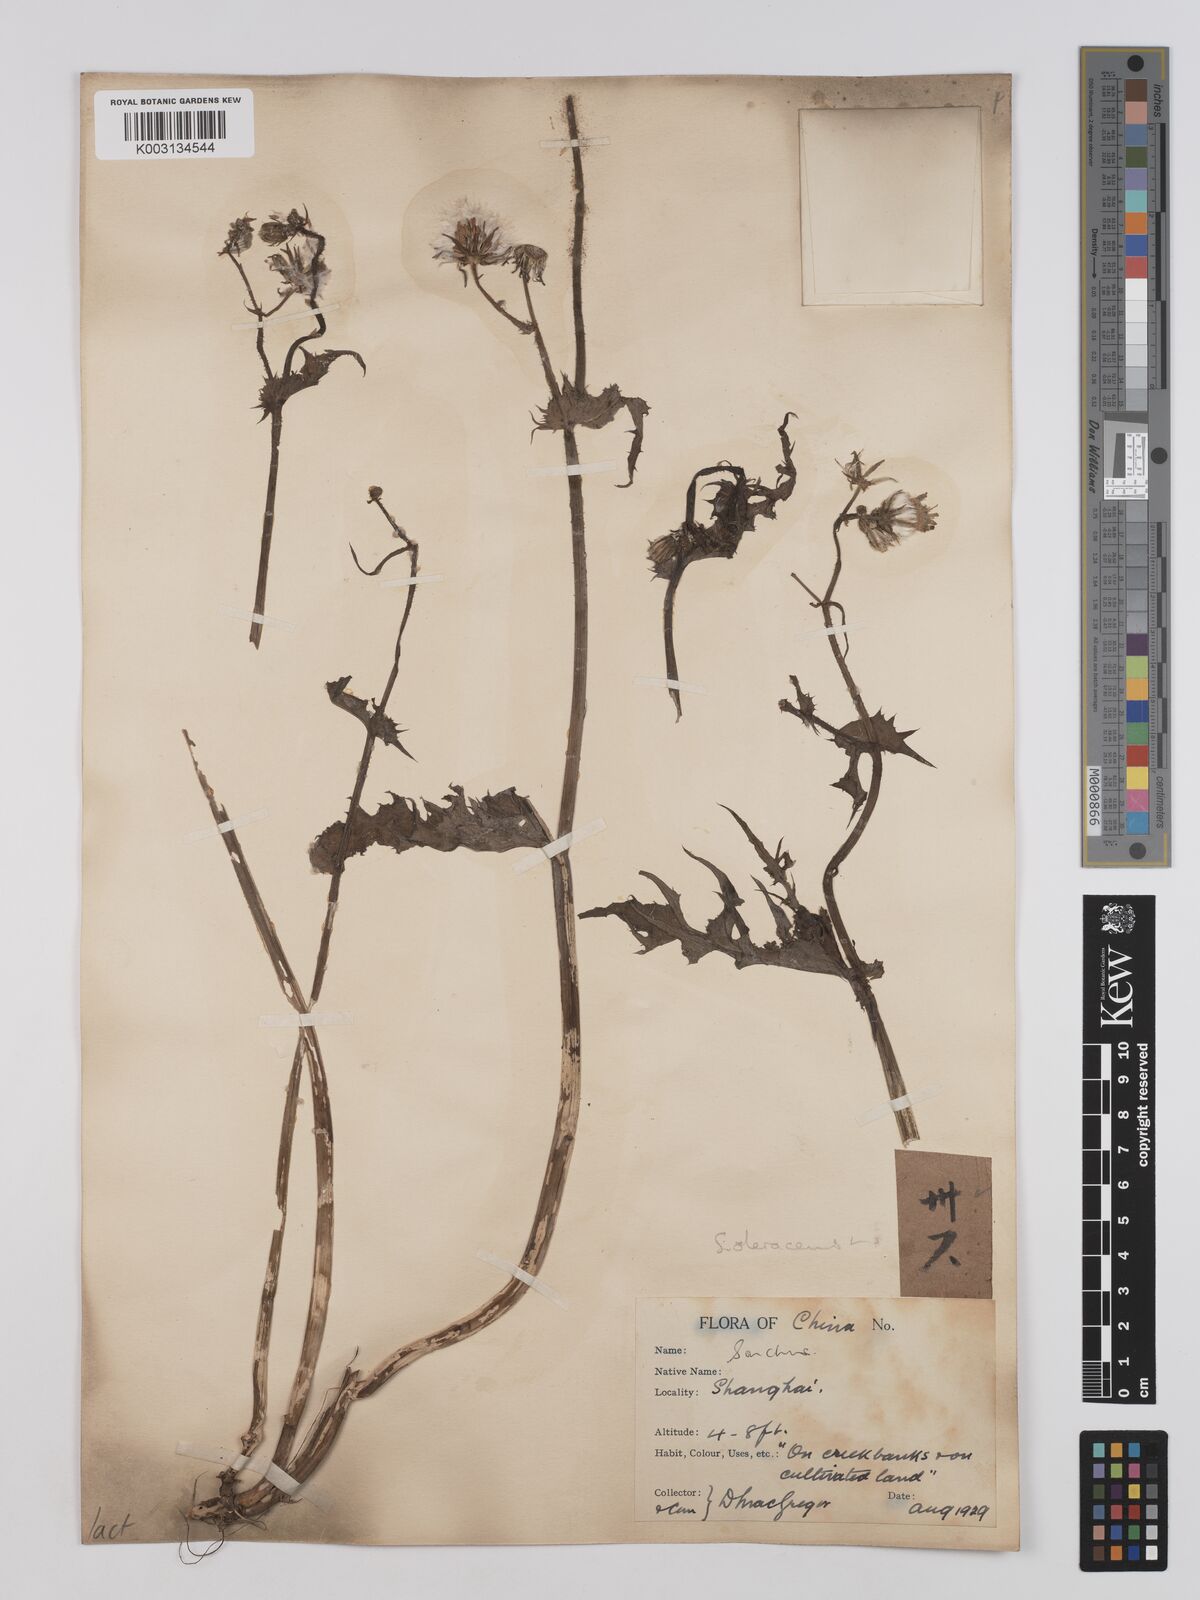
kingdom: Plantae
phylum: Tracheophyta
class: Magnoliopsida
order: Asterales
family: Asteraceae
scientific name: Asteraceae
